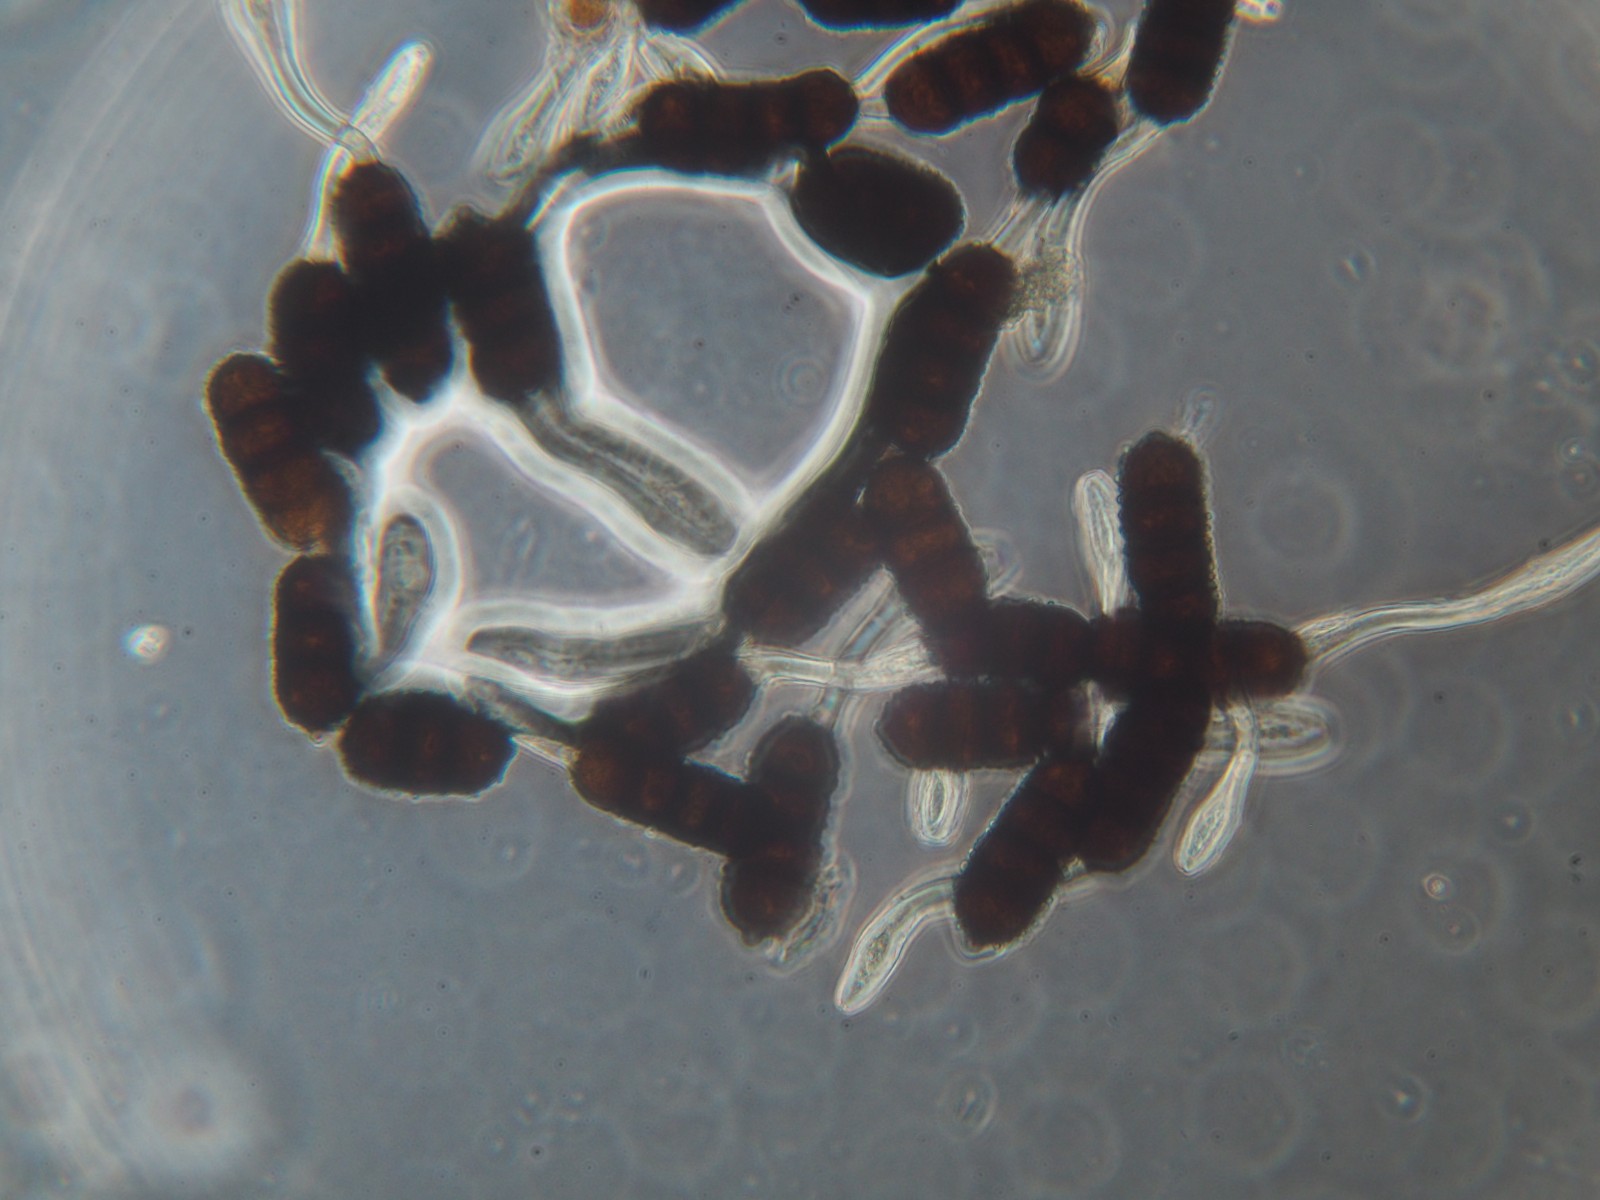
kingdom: Fungi
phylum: Basidiomycota
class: Pucciniomycetes
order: Pucciniales
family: Phragmidiaceae
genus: Phragmidium
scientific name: Phragmidium violaceum
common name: violet flercellerust
